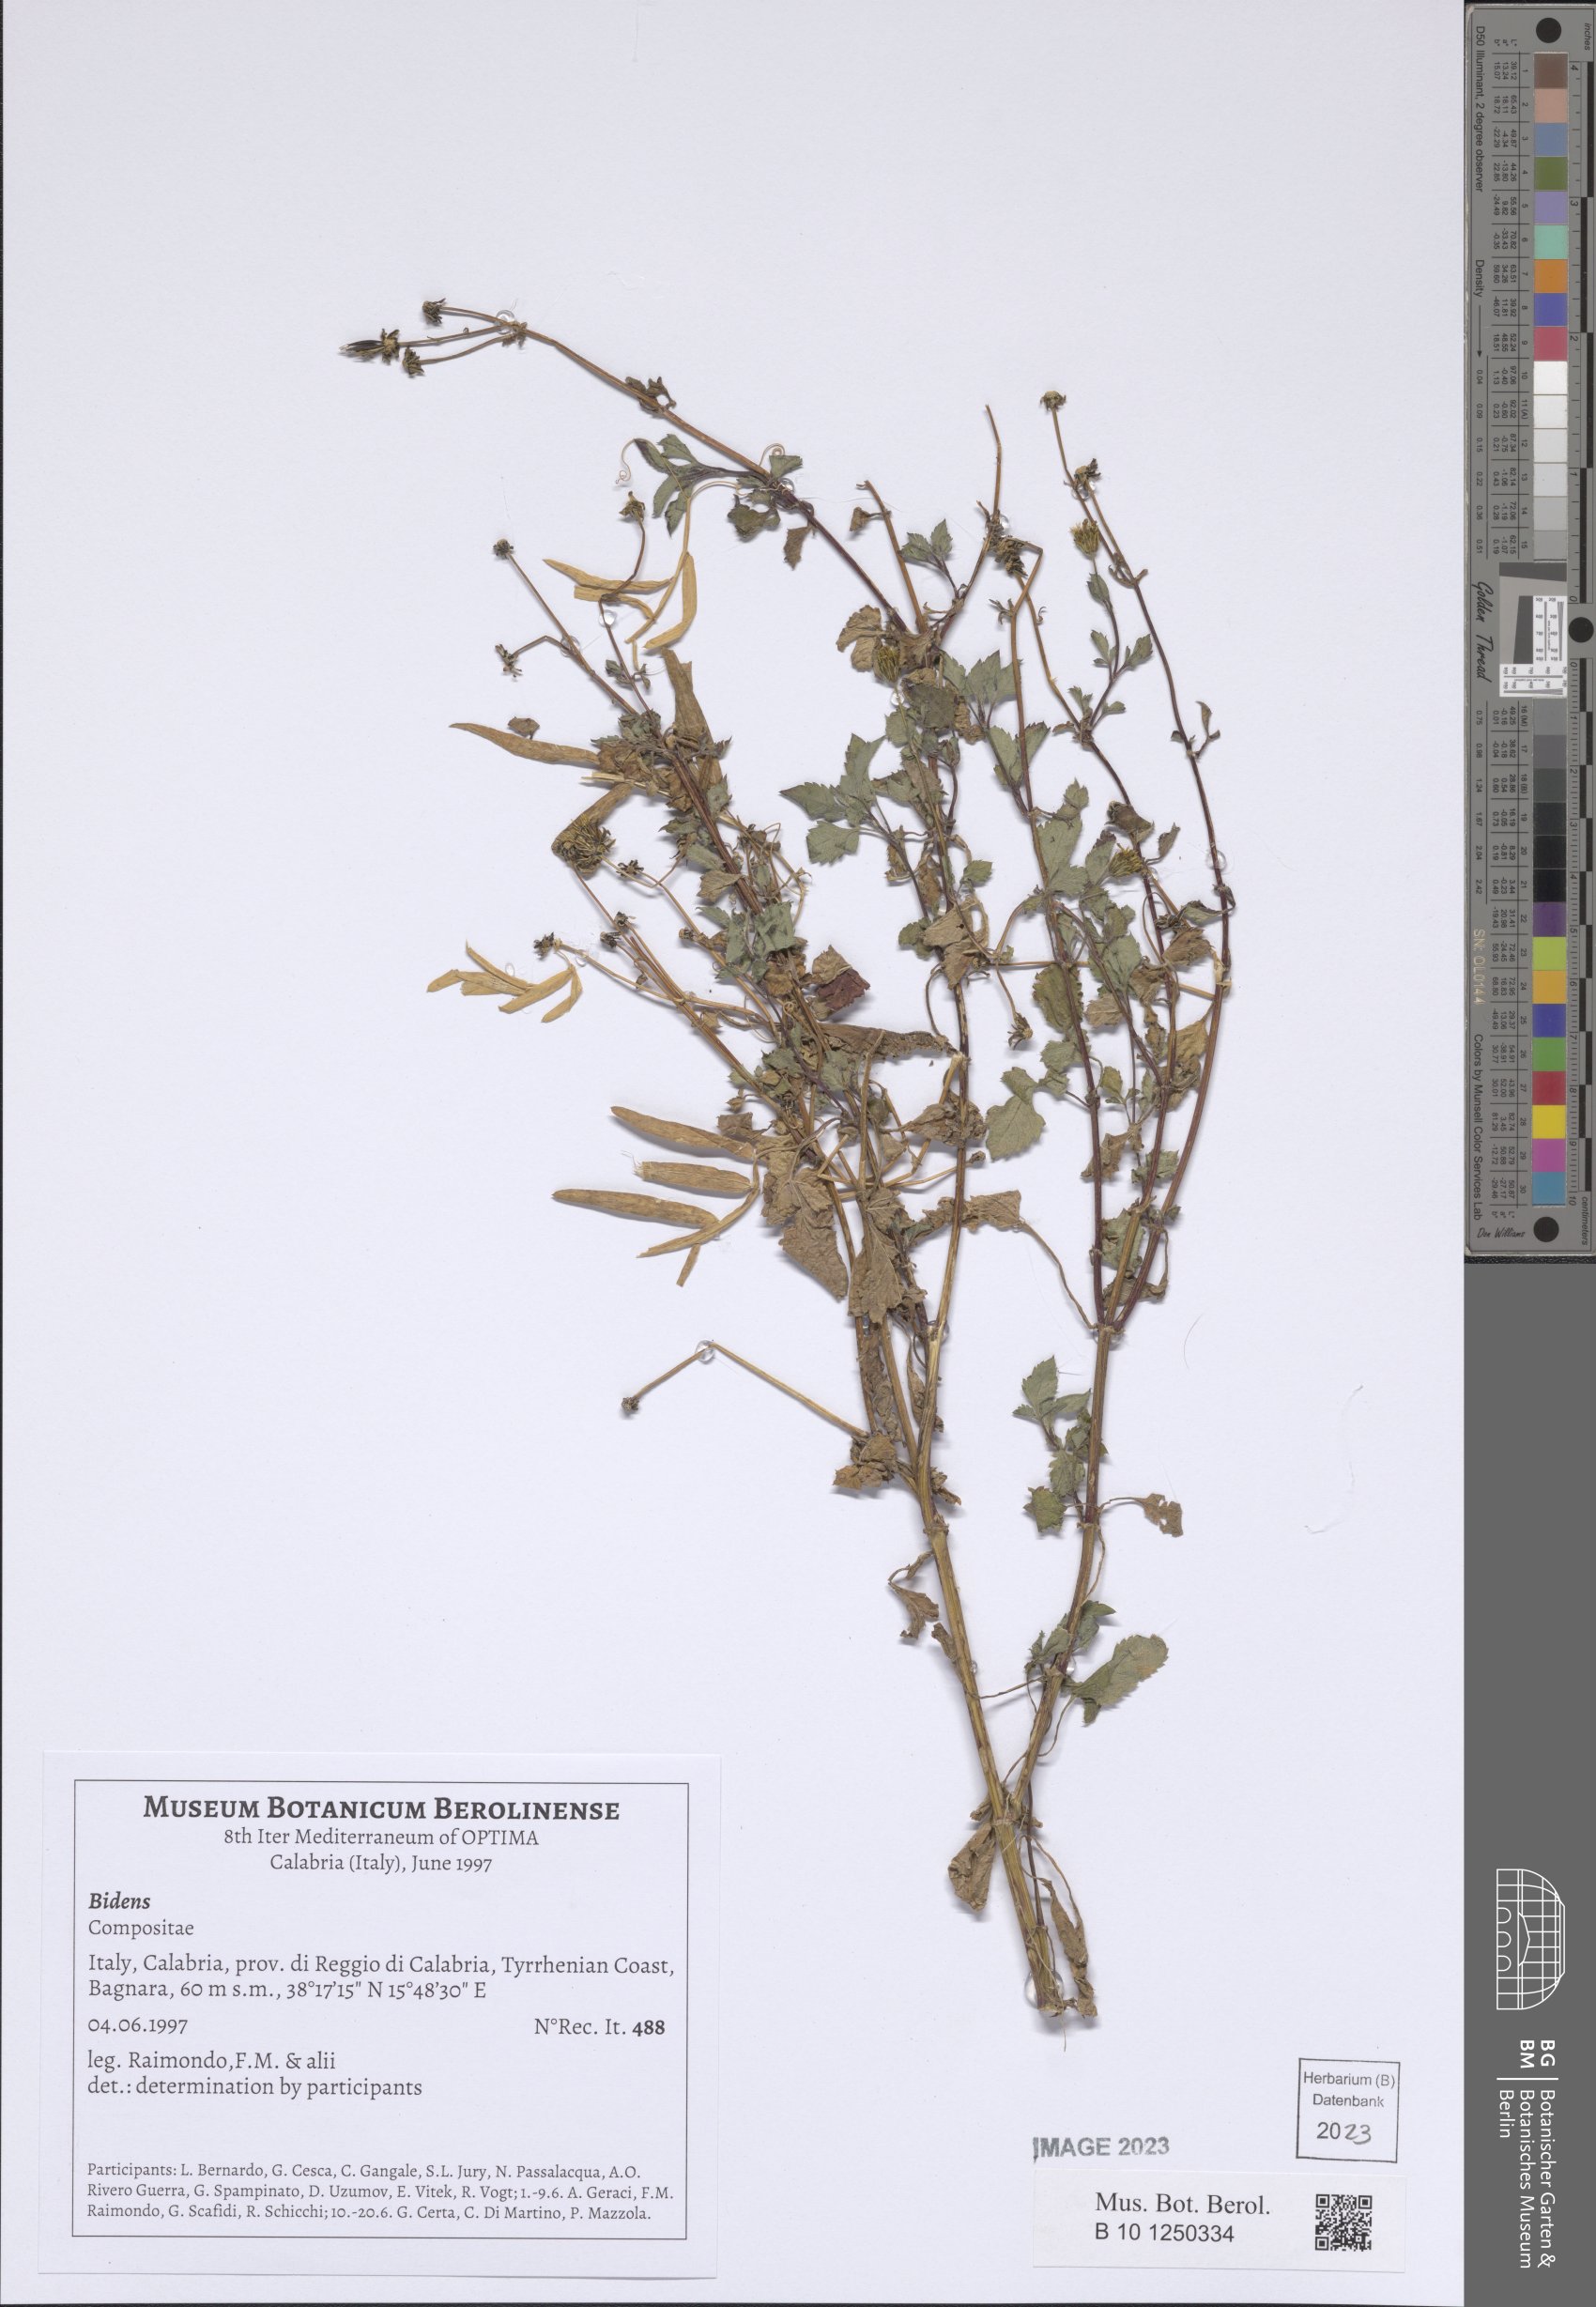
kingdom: Plantae
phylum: Tracheophyta
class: Magnoliopsida
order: Asterales
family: Asteraceae
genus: Bidens
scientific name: Bidens
